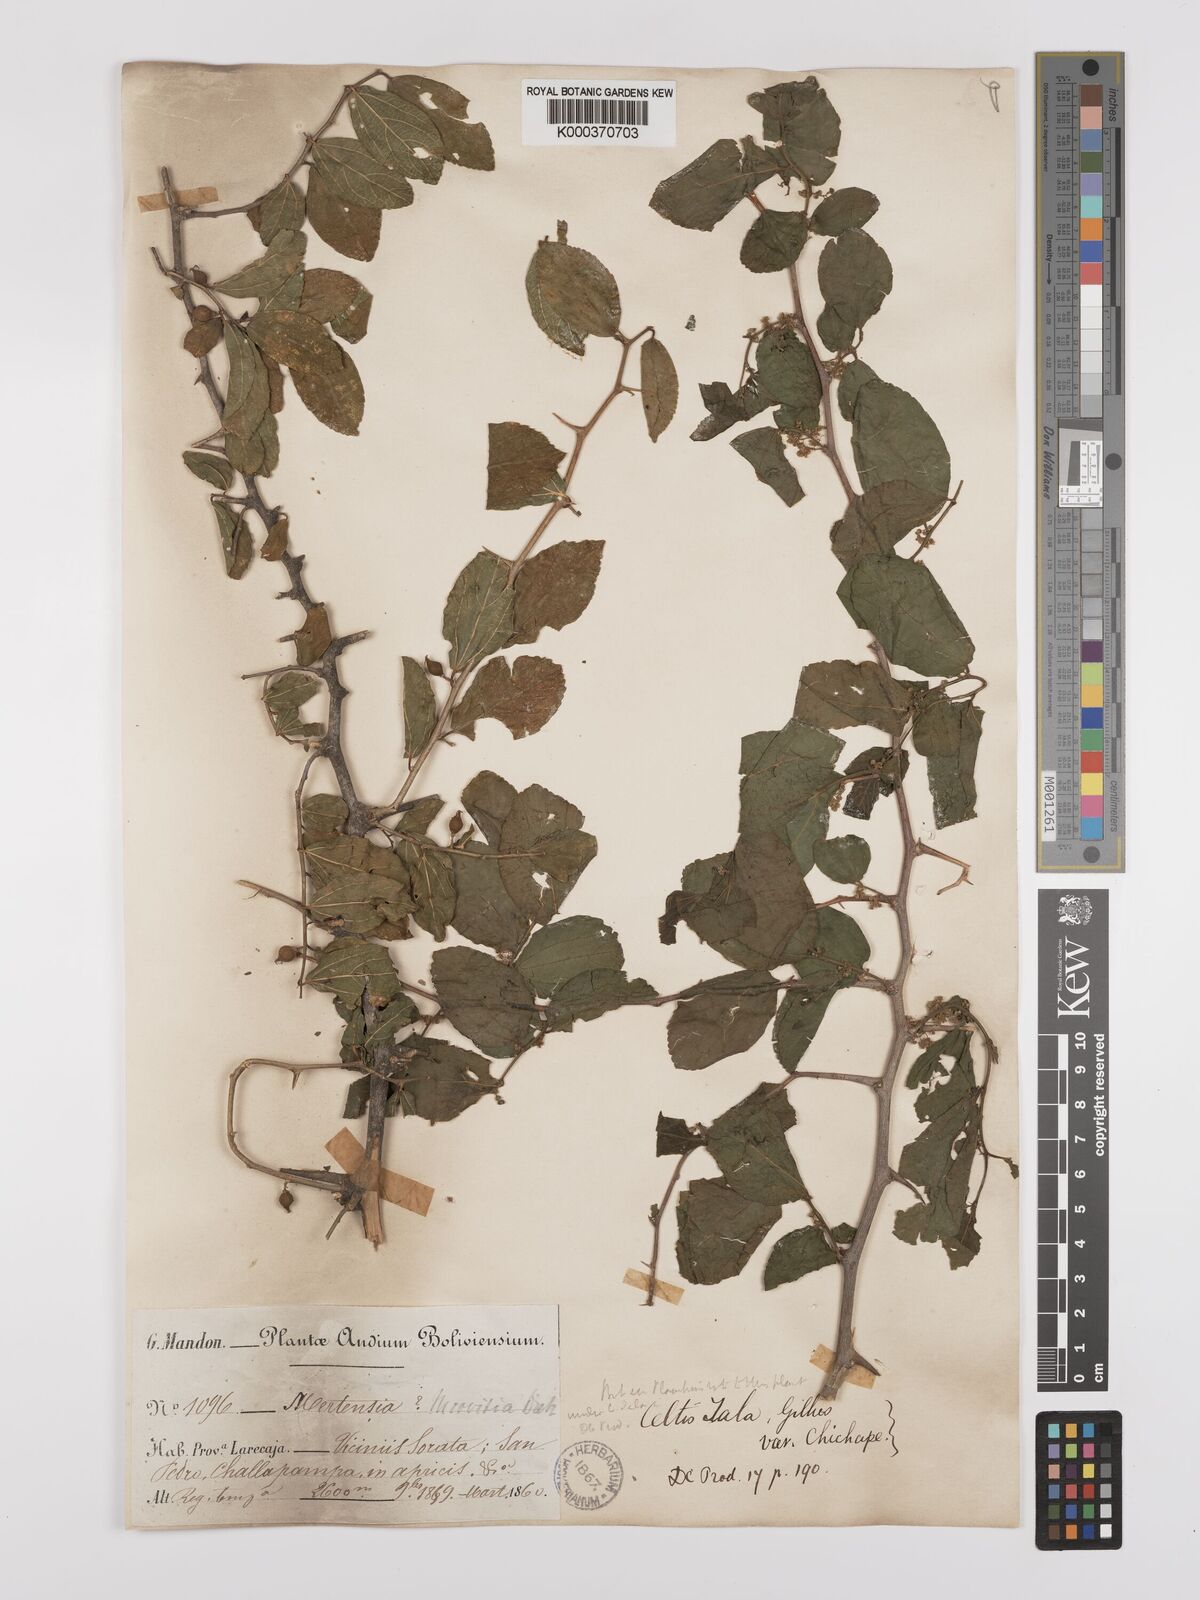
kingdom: Plantae
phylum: Tracheophyta
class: Magnoliopsida
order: Rosales
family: Cannabaceae
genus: Celtis
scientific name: Celtis chicape
